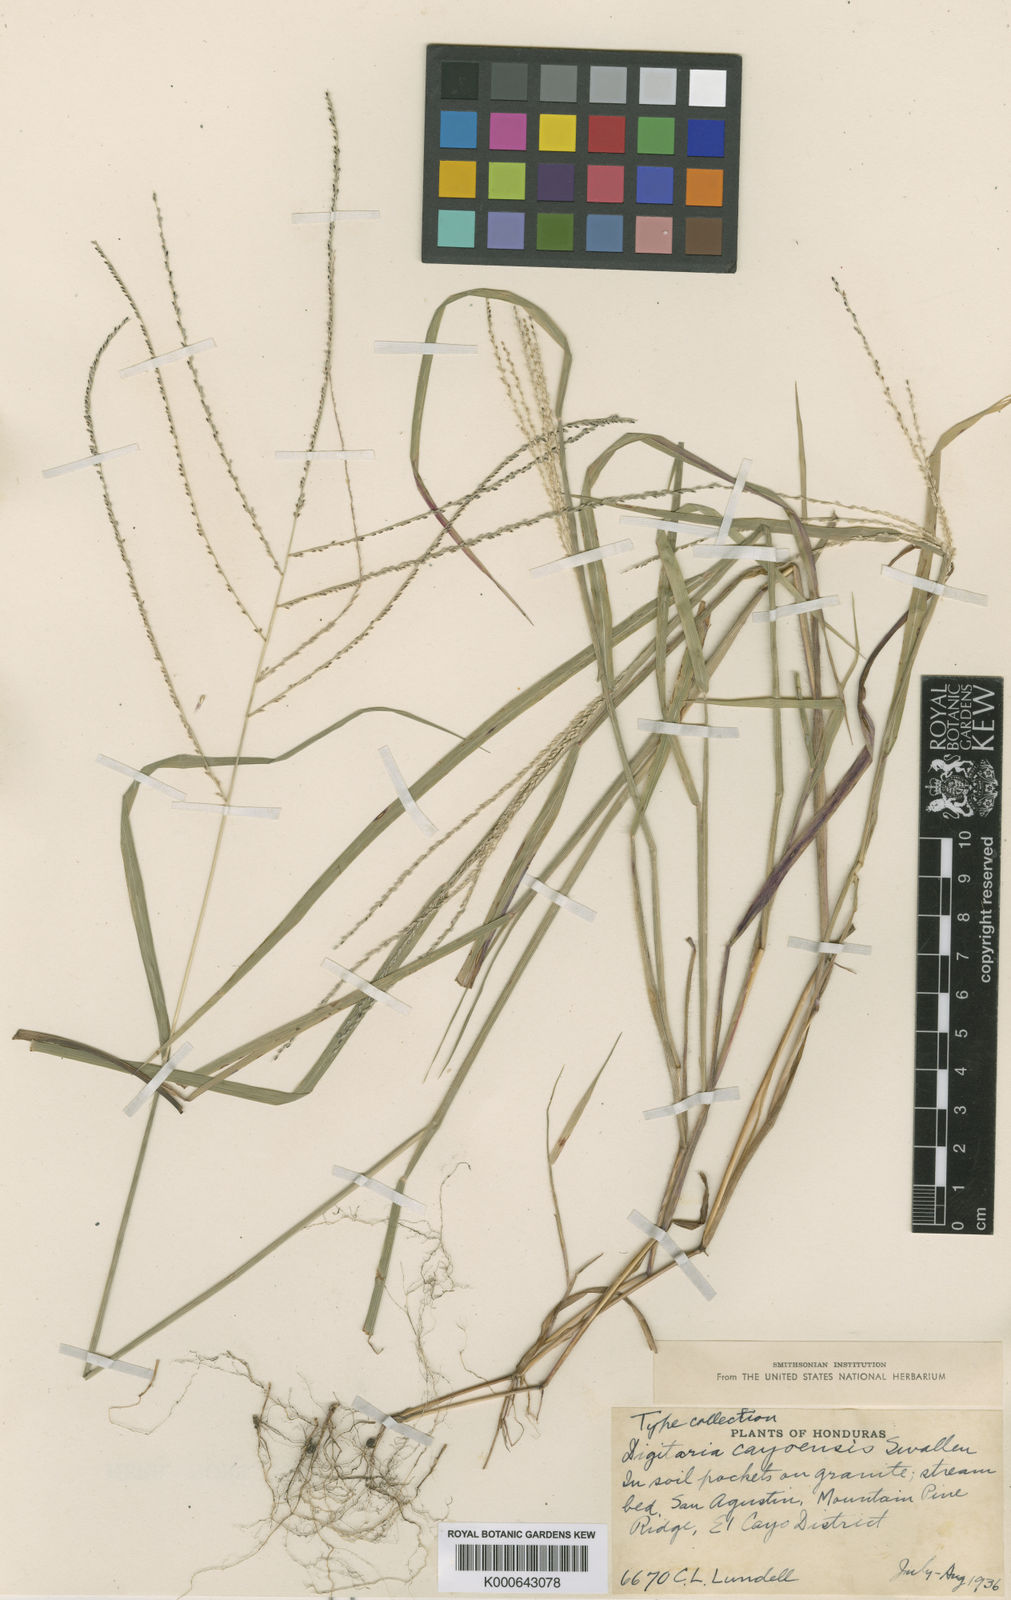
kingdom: Plantae
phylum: Tracheophyta
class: Liliopsida
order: Poales
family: Poaceae
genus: Digitaria
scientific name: Digitaria cayoensis
